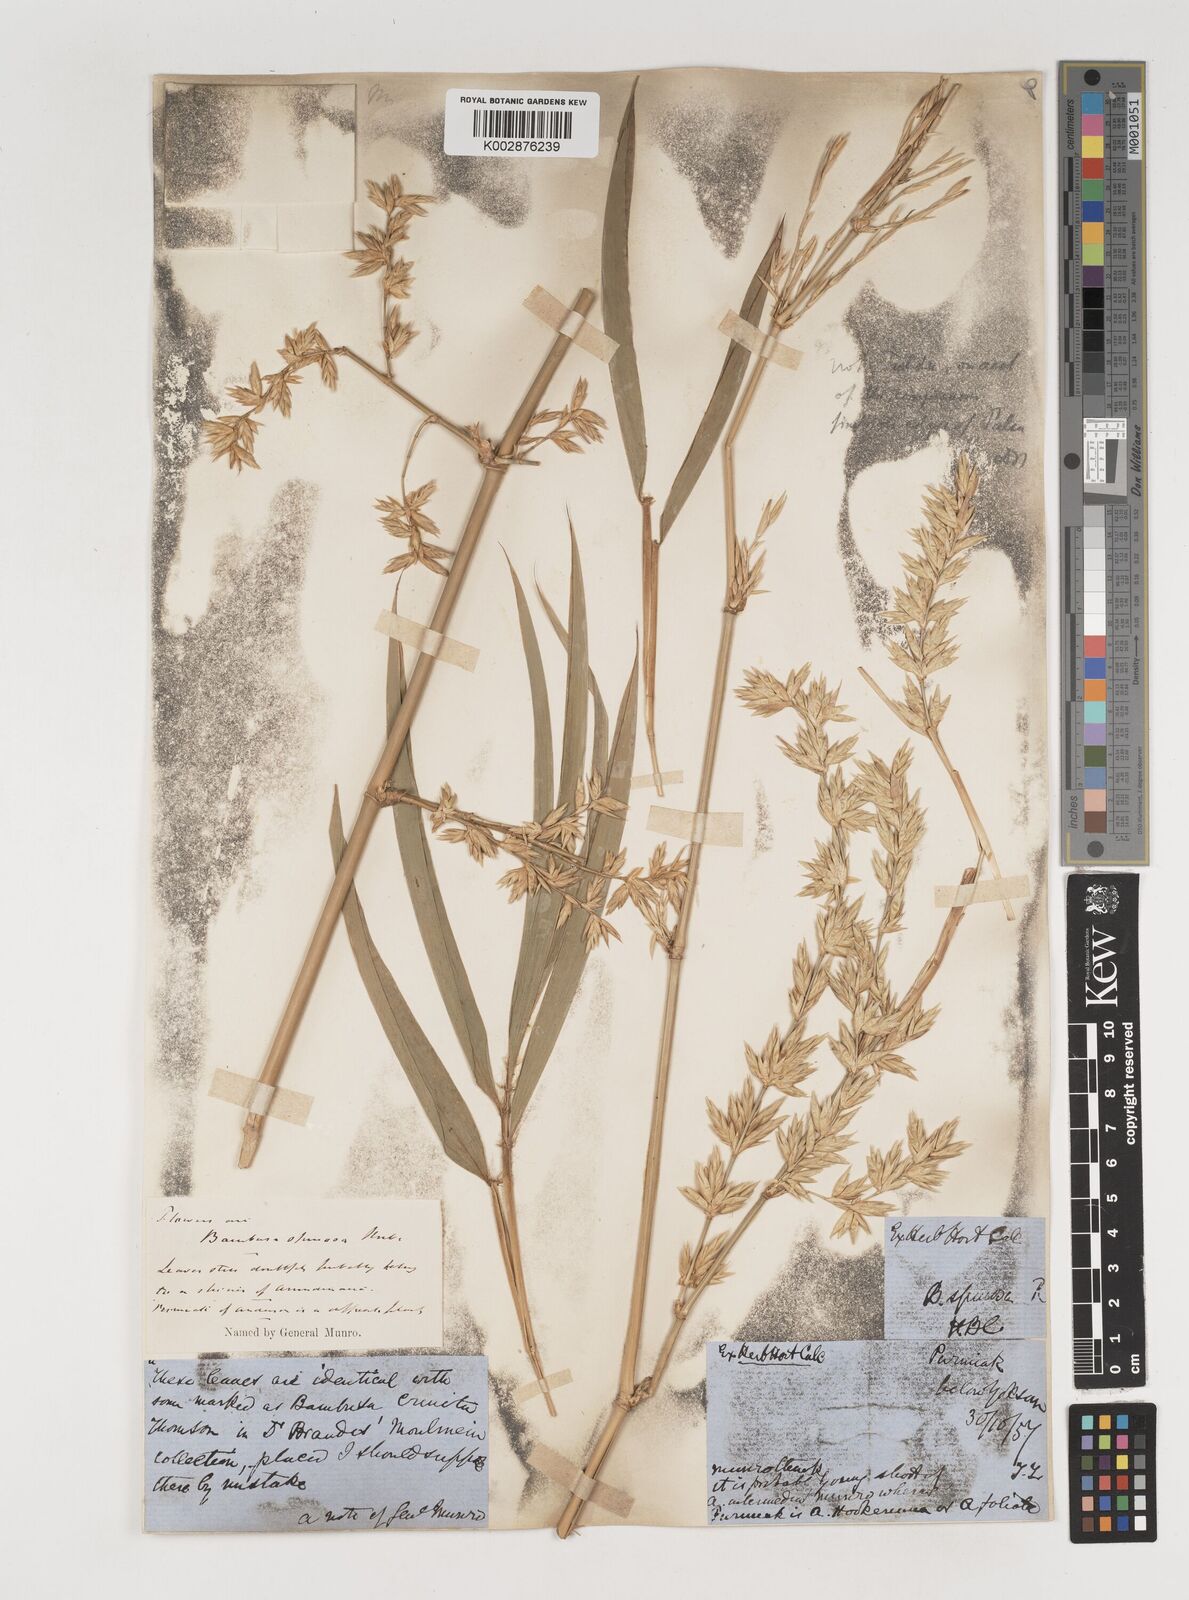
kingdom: Plantae
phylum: Tracheophyta
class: Liliopsida
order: Poales
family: Poaceae
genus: Bambusa
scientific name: Bambusa bambos
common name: Indian thorny bamboo
